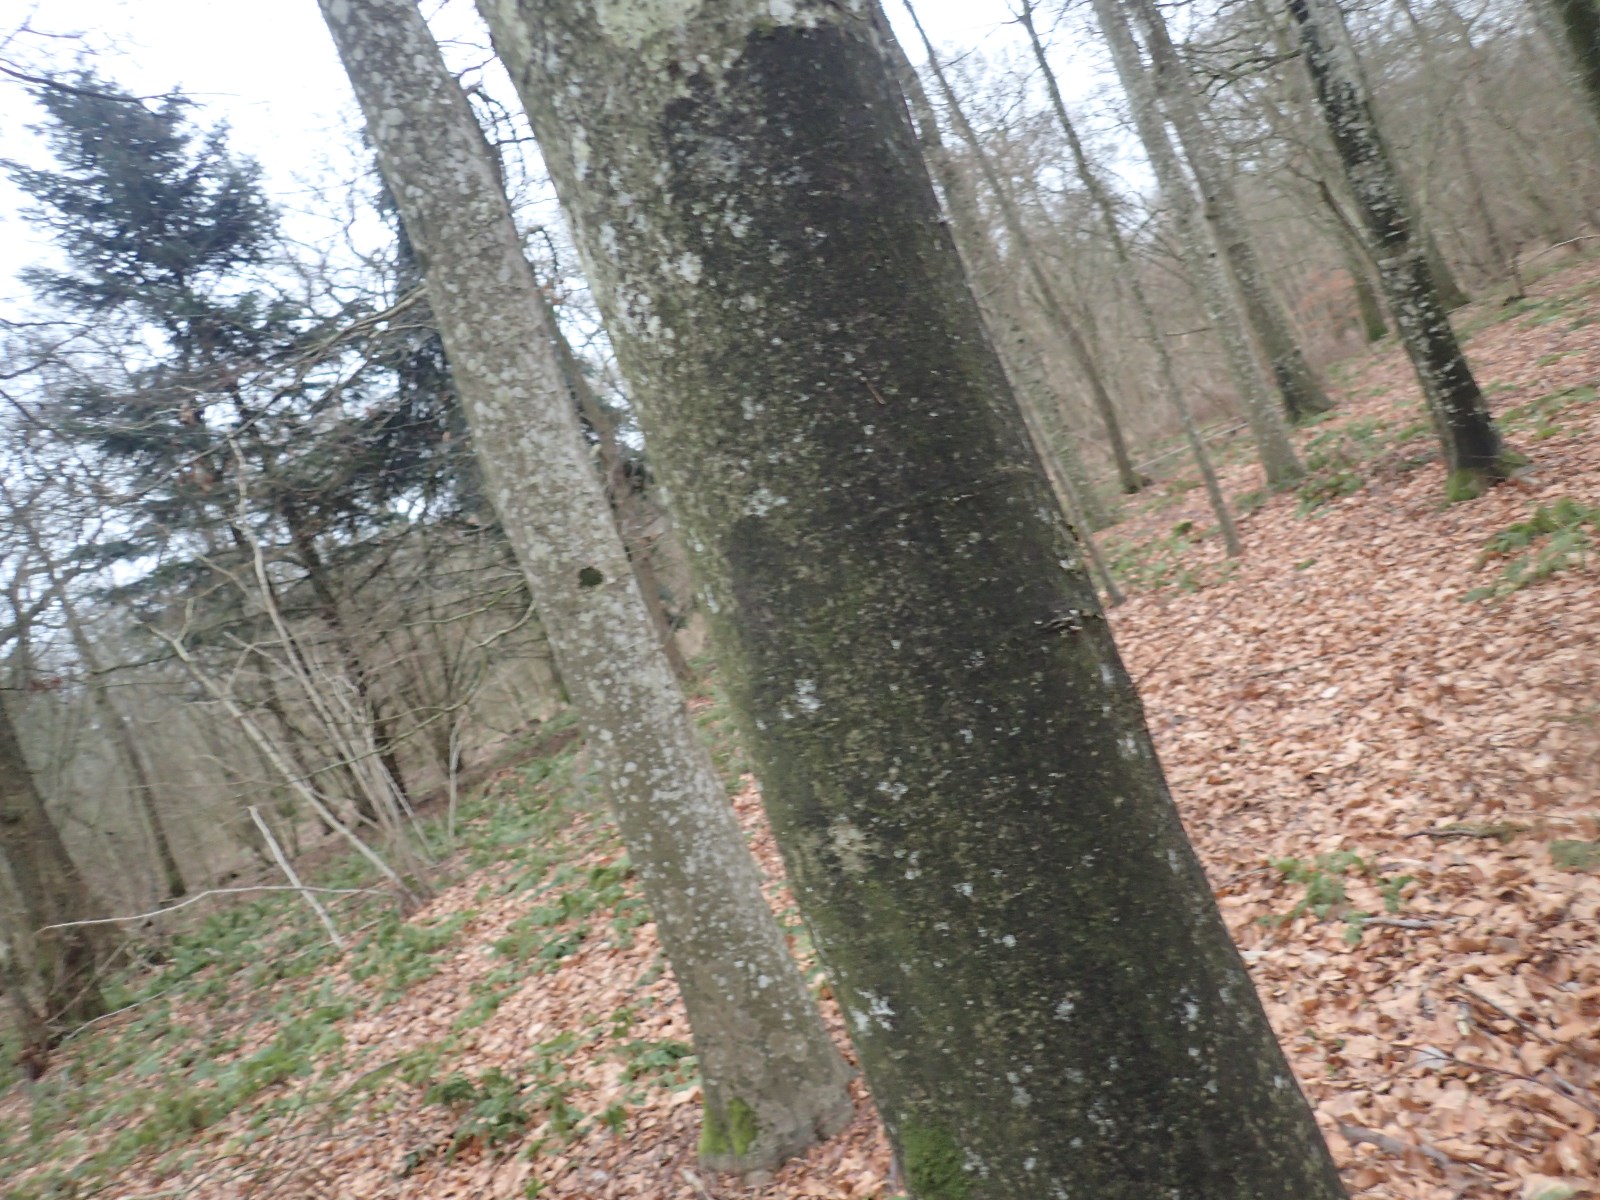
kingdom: Fungi
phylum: Ascomycota
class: Leotiomycetes
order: Rhytismatales
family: Ascodichaenaceae
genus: Ascodichaena
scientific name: Ascodichaena rugosa
